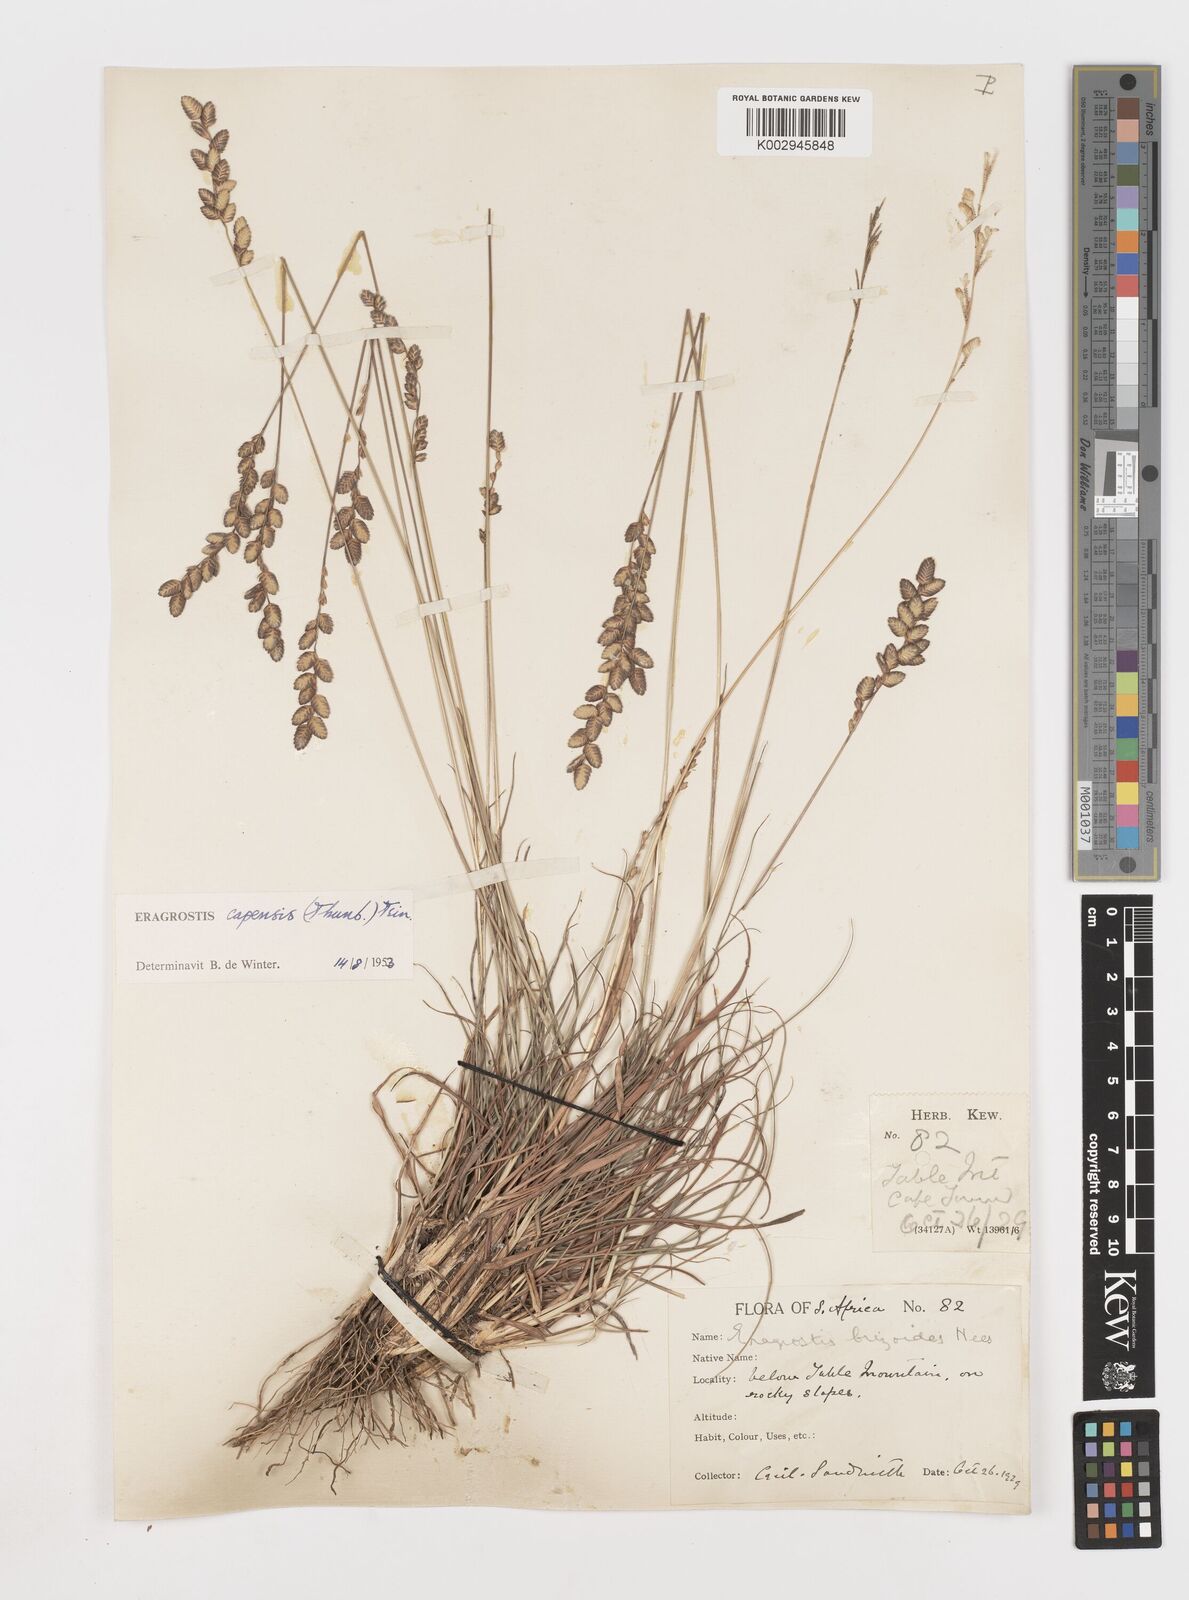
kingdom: Plantae
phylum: Tracheophyta
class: Liliopsida
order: Poales
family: Poaceae
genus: Eragrostis
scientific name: Eragrostis capensis
